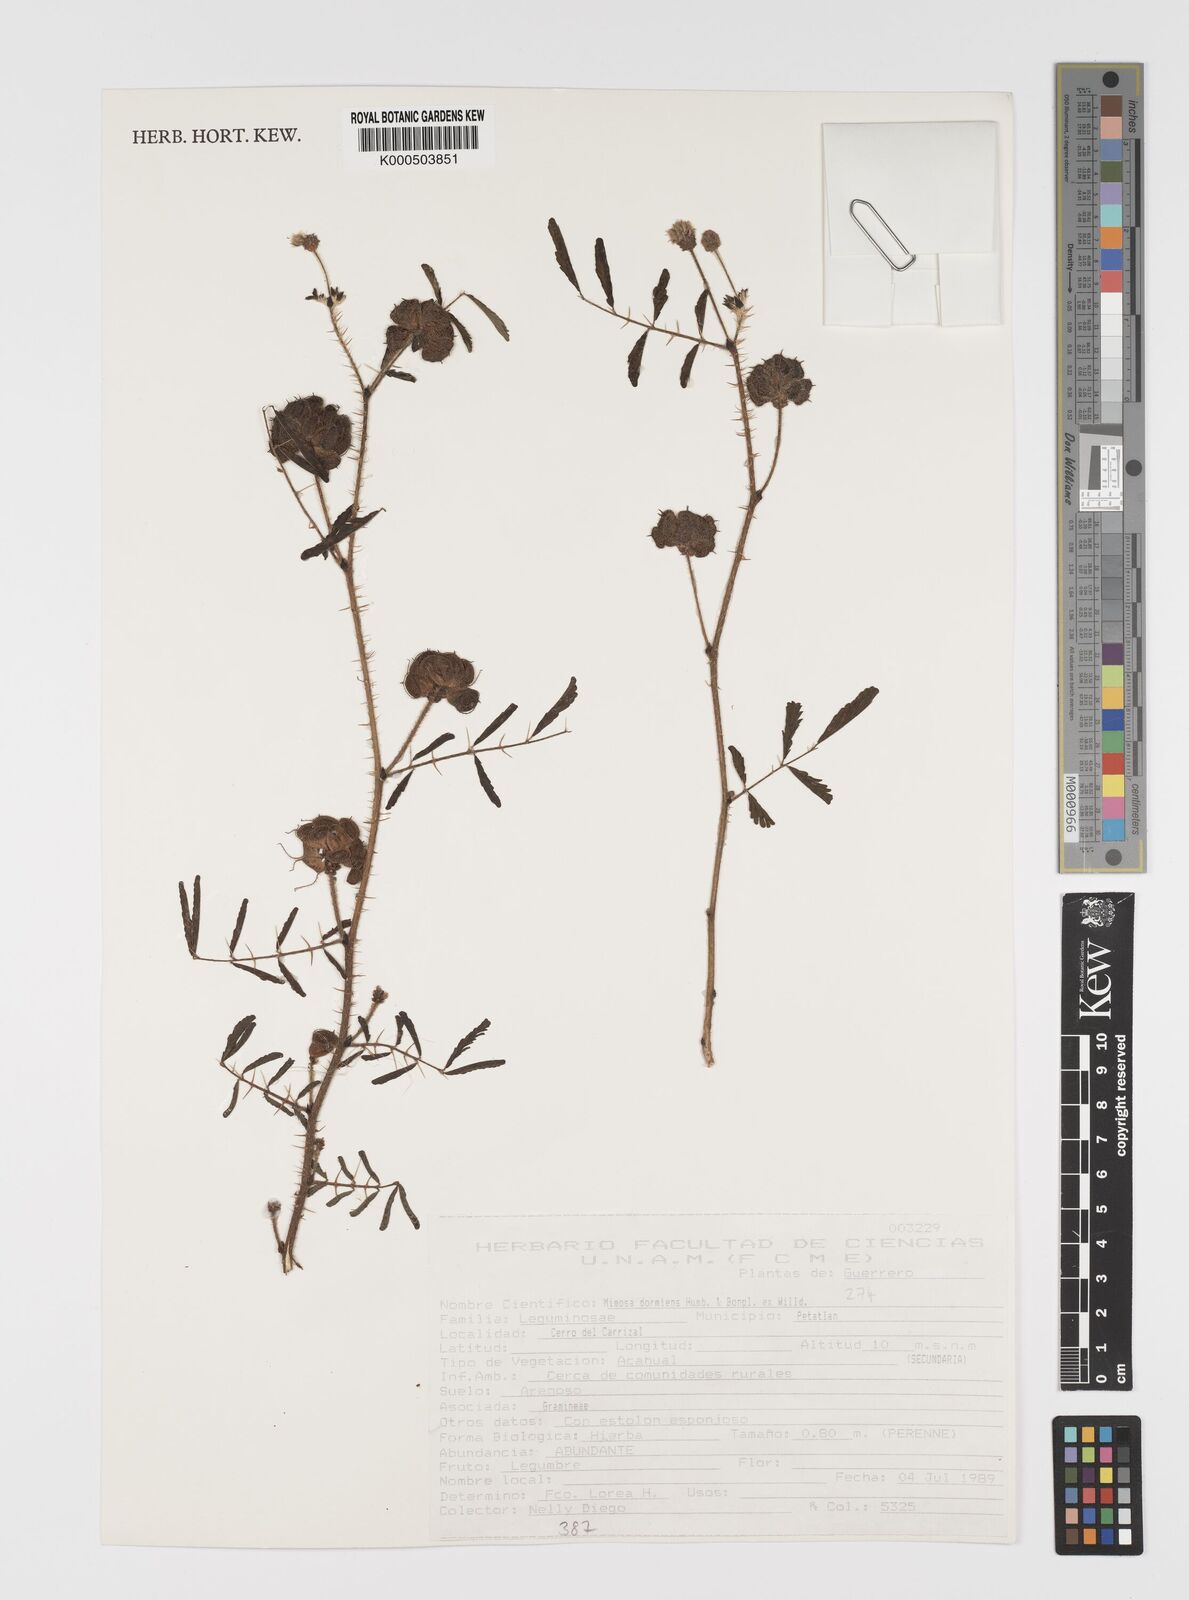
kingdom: Plantae
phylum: Tracheophyta
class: Magnoliopsida
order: Fabales
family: Fabaceae
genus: Mimosa
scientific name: Mimosa dormiens
